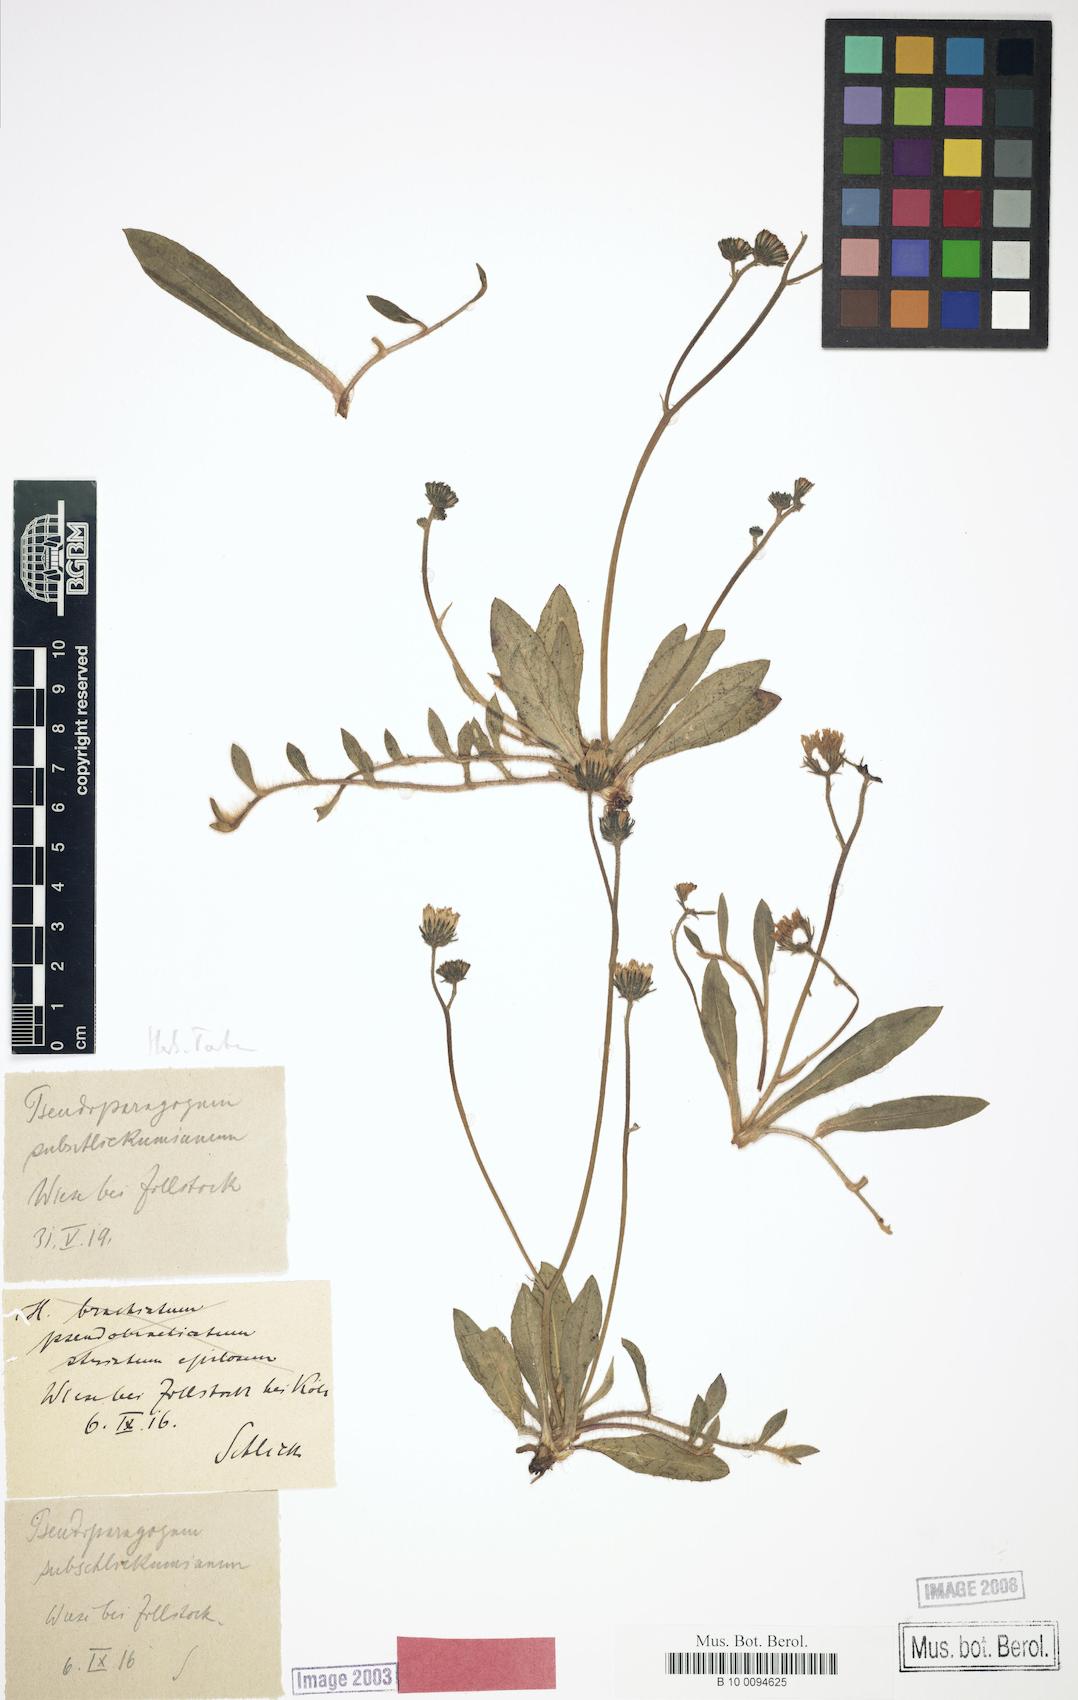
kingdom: Plantae
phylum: Tracheophyta
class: Magnoliopsida
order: Asterales
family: Asteraceae
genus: Pilosella
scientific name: Pilosella pseudoparagoga
